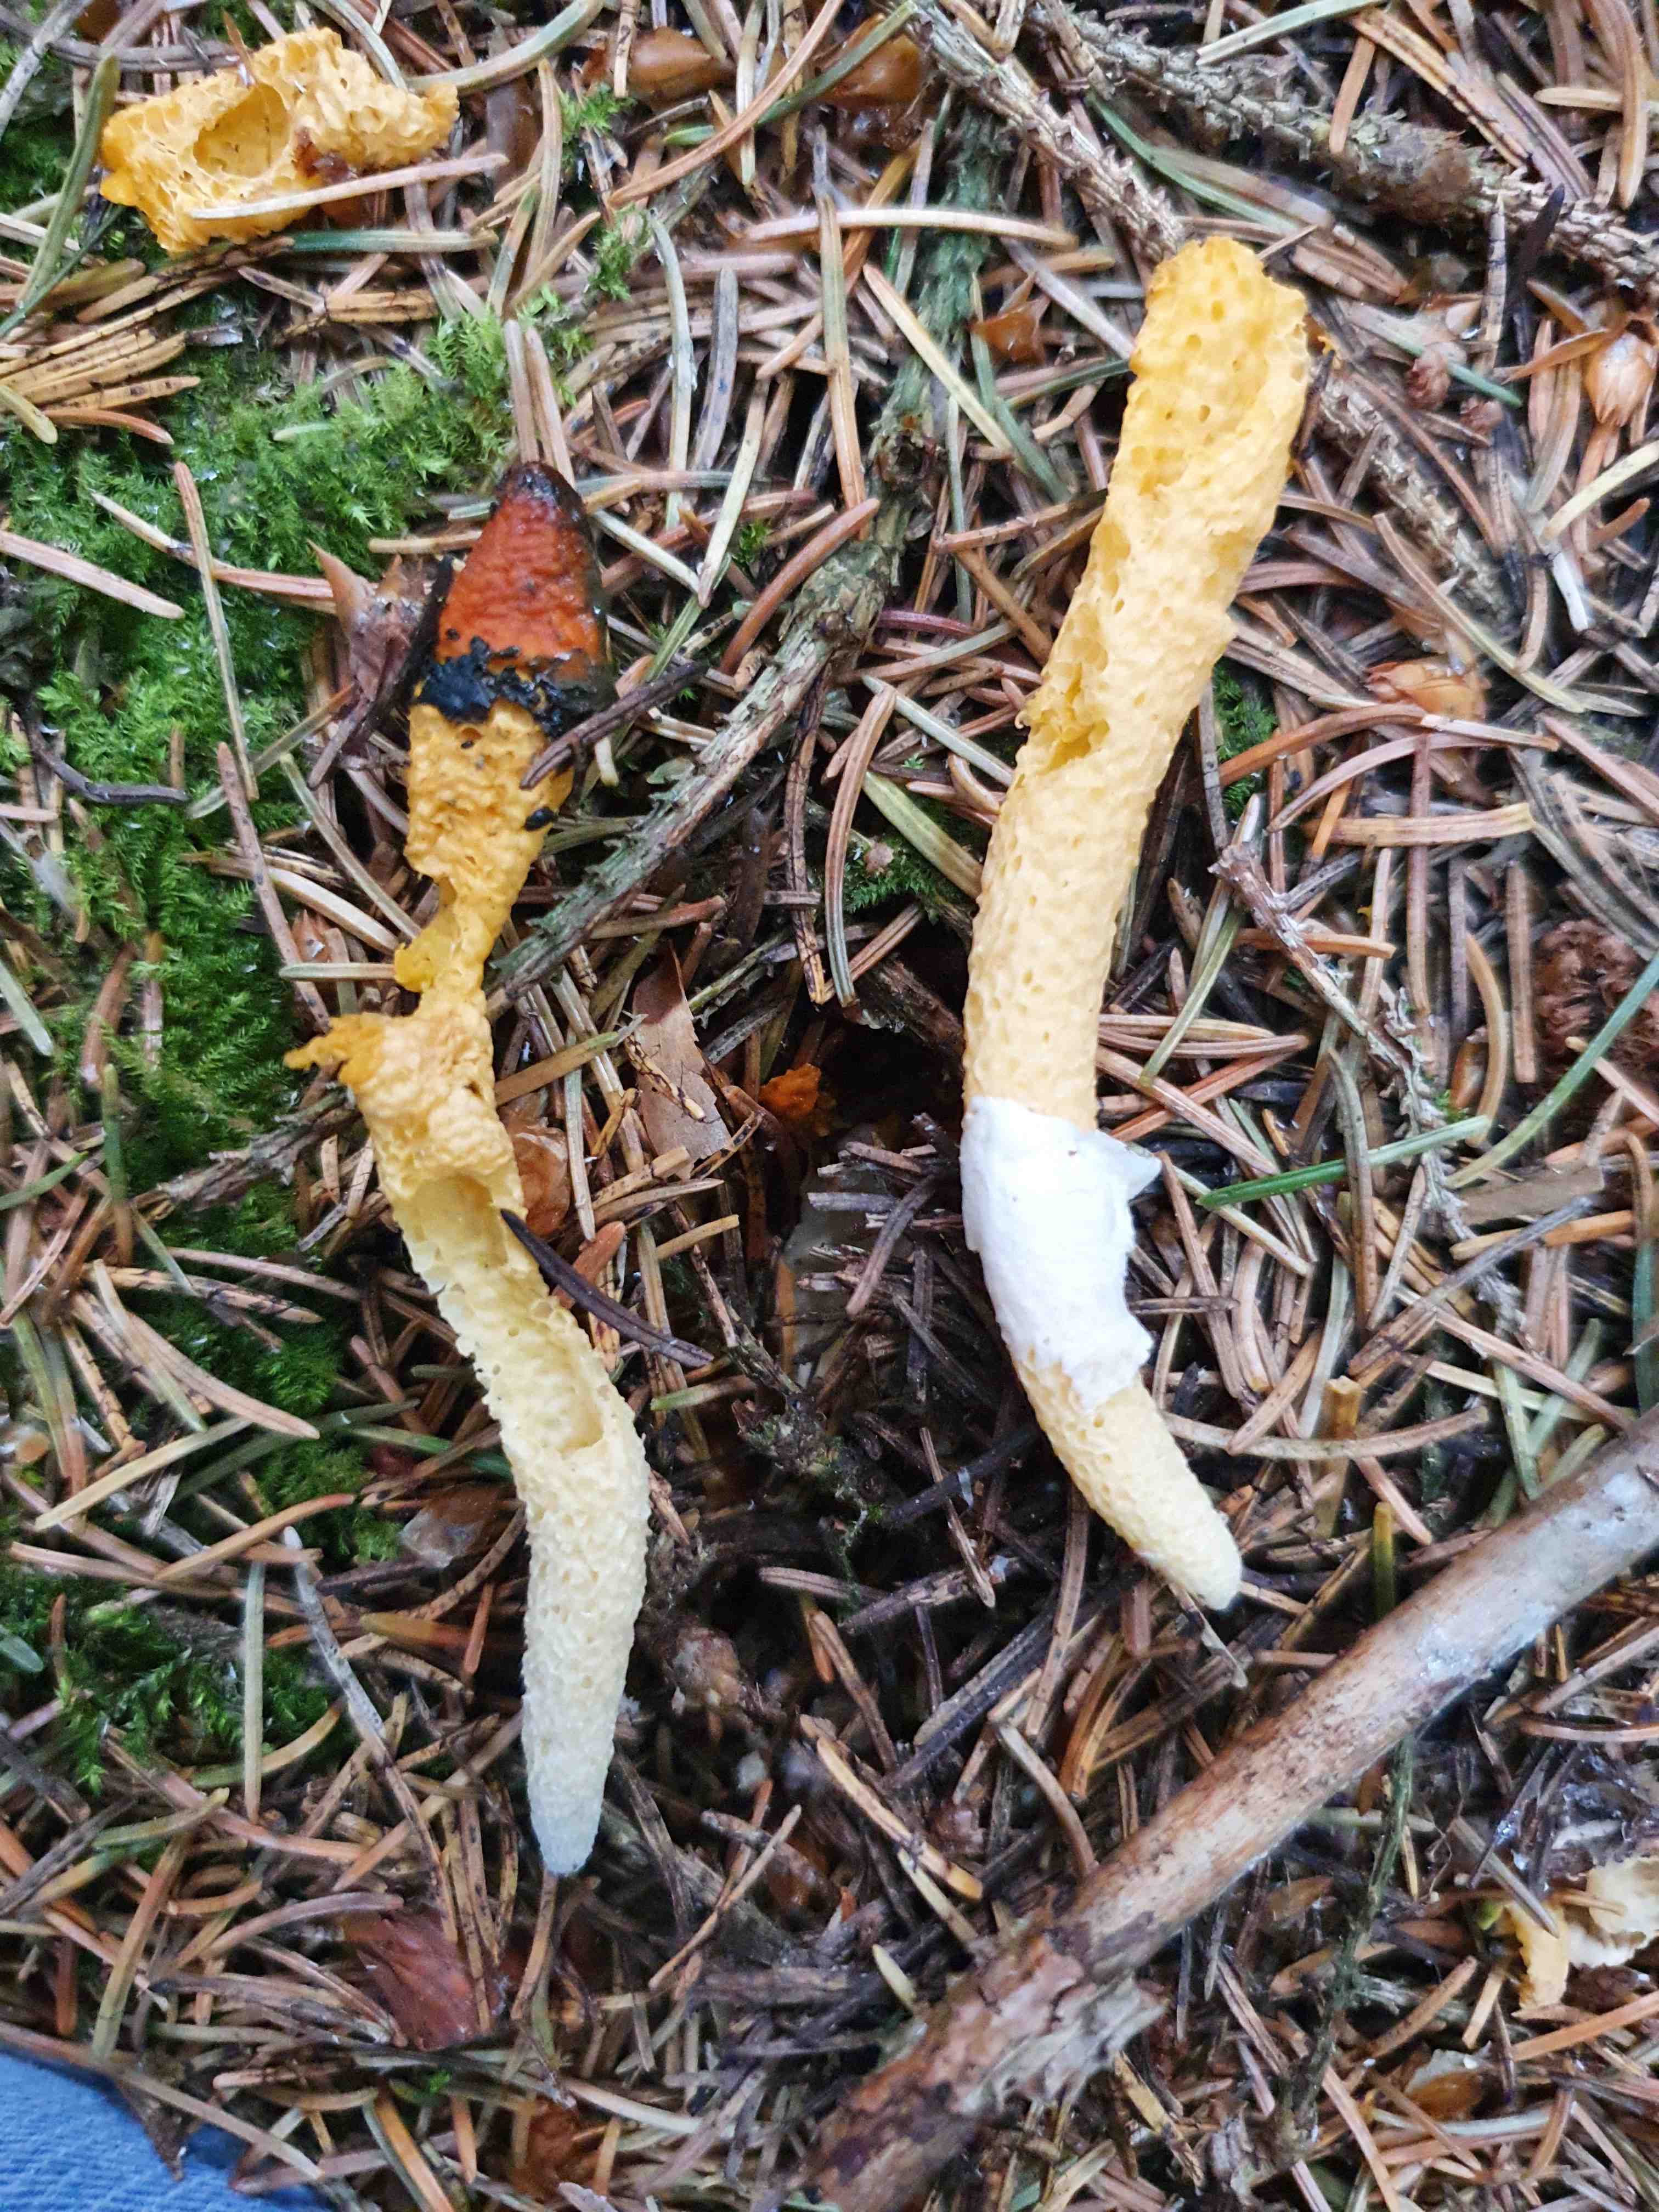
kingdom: Fungi
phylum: Basidiomycota
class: Agaricomycetes
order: Phallales
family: Phallaceae
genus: Mutinus
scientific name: Mutinus caninus
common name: hunde-stinksvamp
